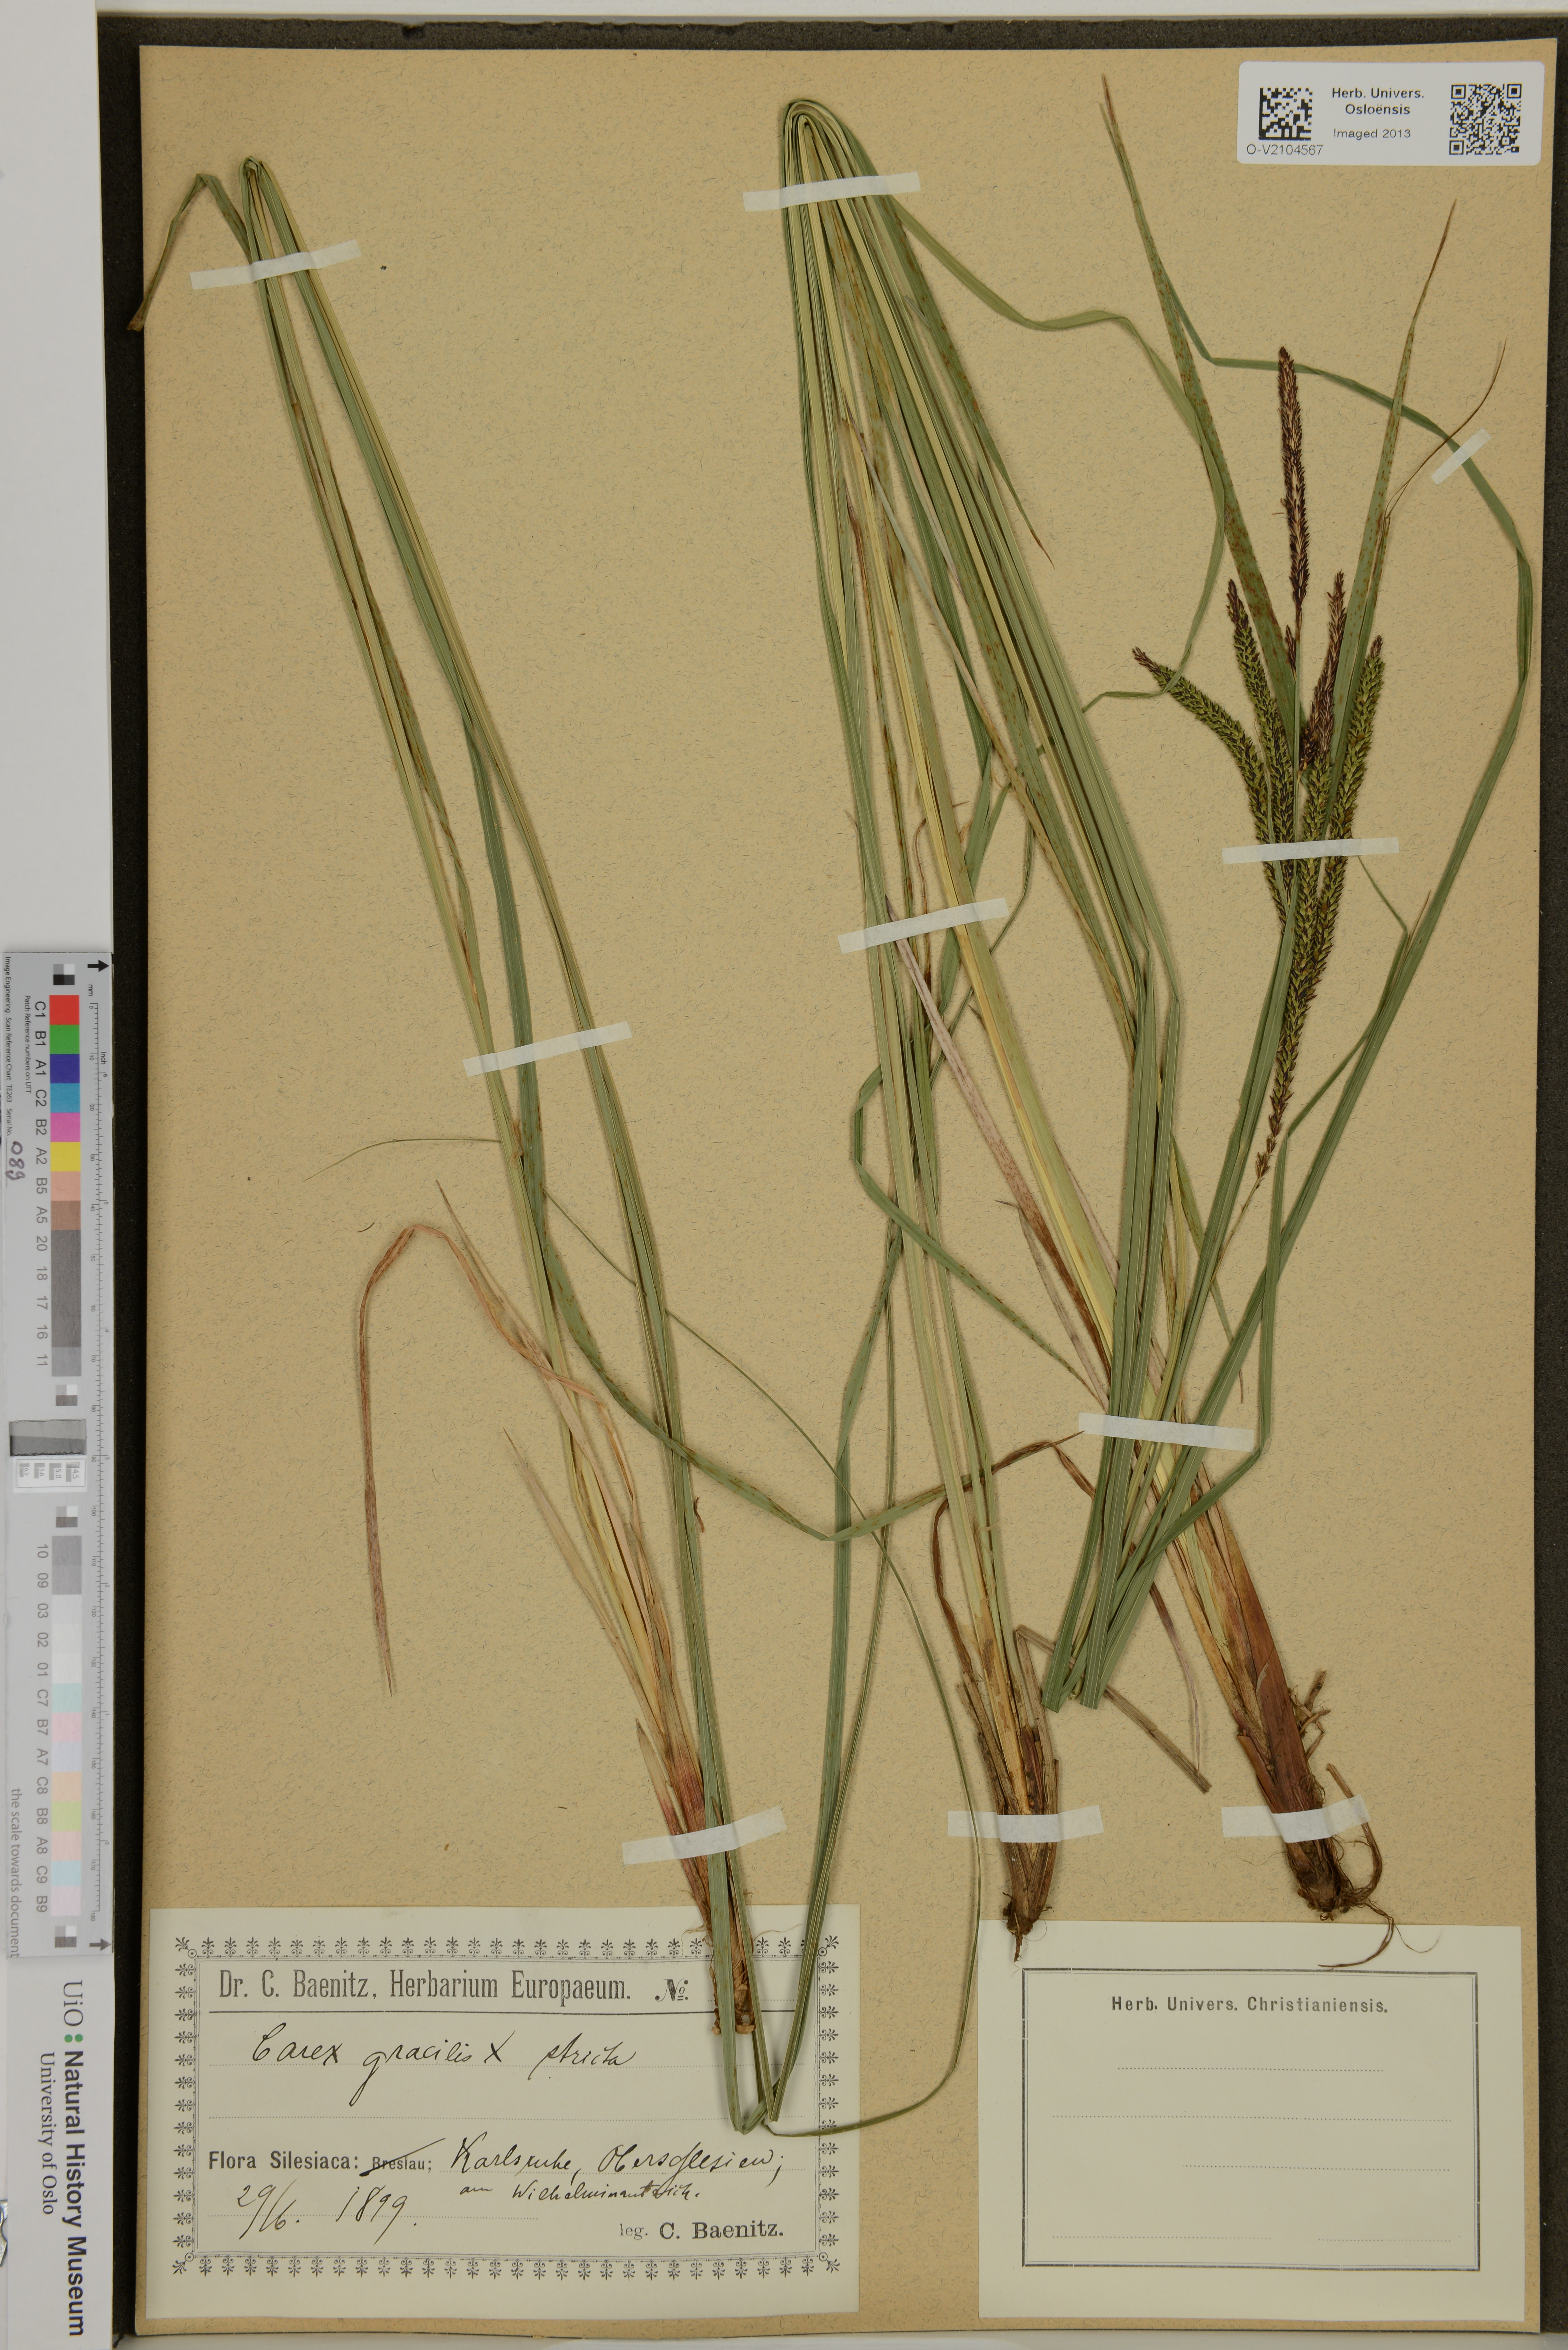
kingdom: Plantae
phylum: Tracheophyta
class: Liliopsida
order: Poales
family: Cyperaceae
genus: Carex
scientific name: Carex
